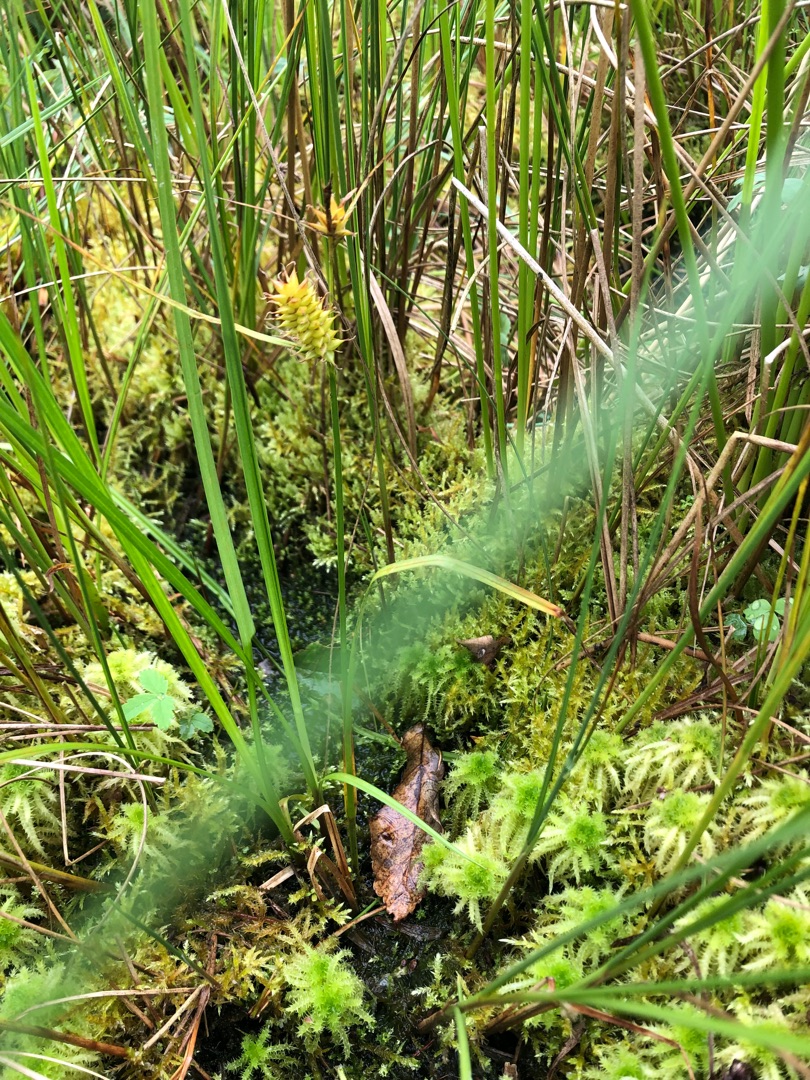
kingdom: Plantae
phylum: Tracheophyta
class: Liliopsida
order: Poales
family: Cyperaceae
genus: Carex
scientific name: Carex vesicaria
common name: Blære-star
